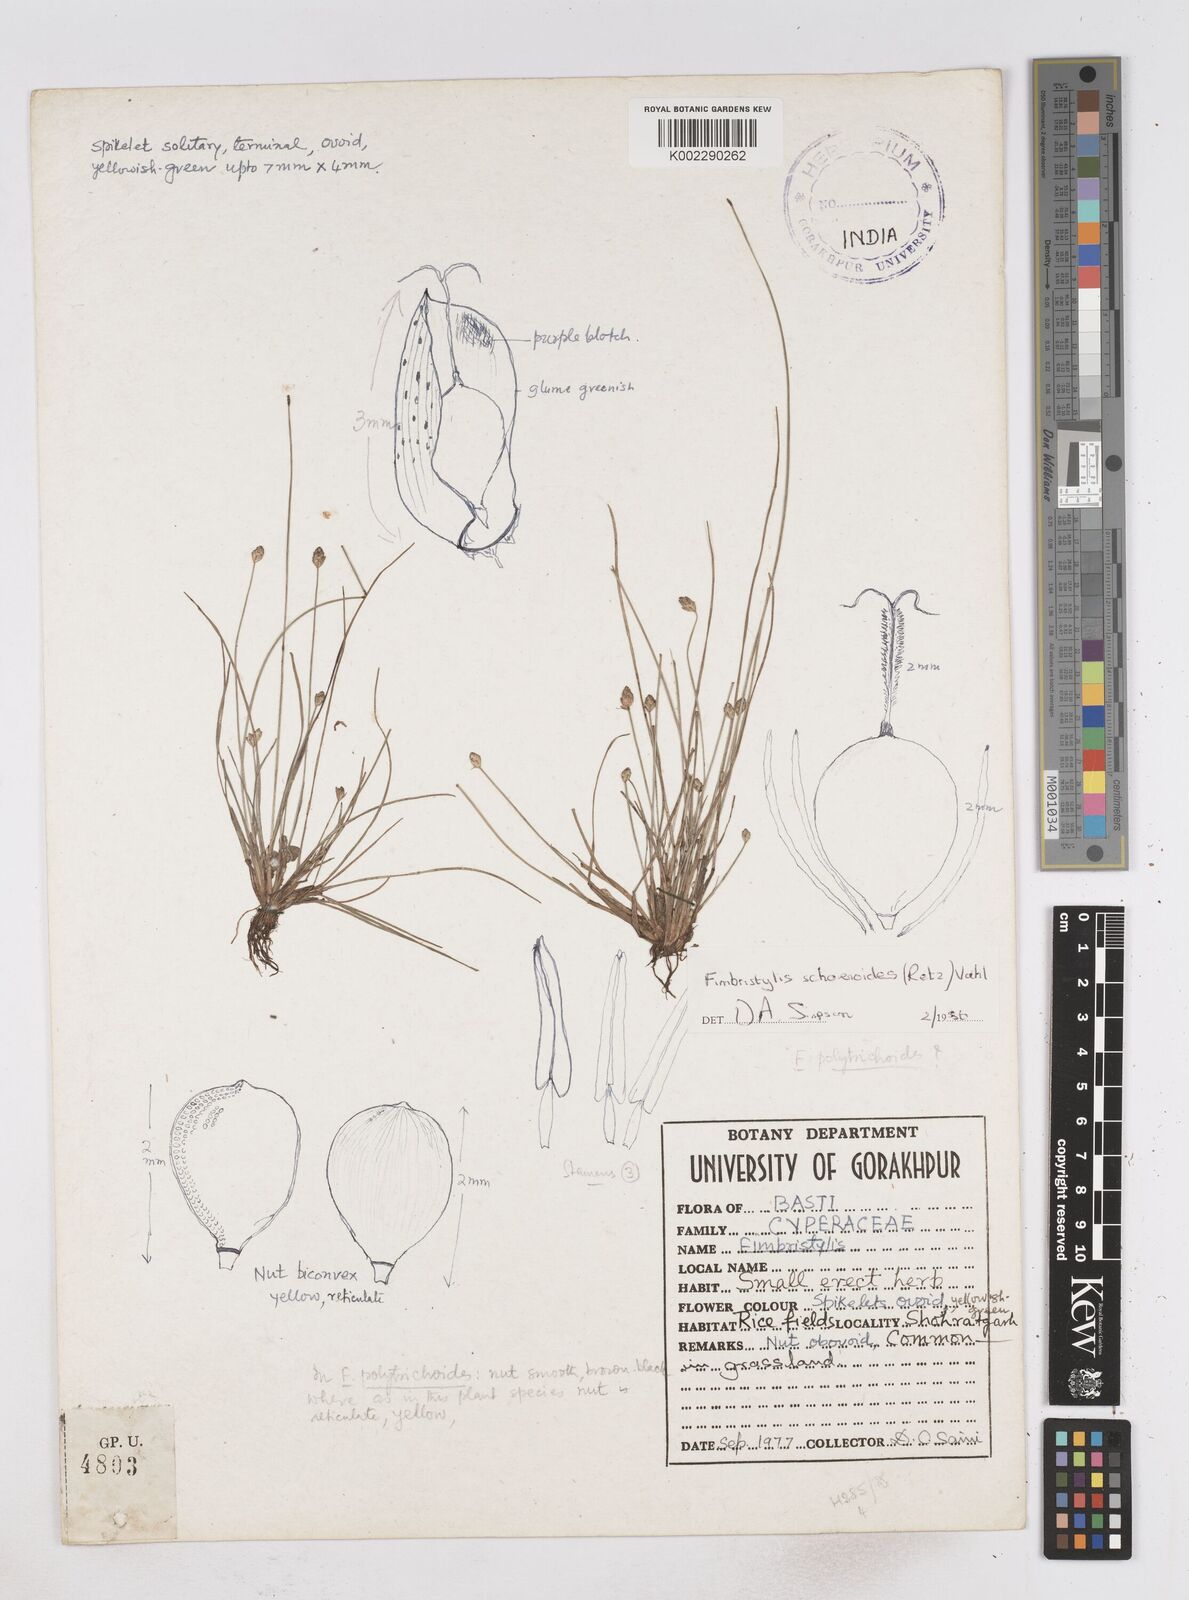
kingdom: Plantae
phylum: Tracheophyta
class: Liliopsida
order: Poales
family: Cyperaceae
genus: Fimbristylis
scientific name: Fimbristylis
